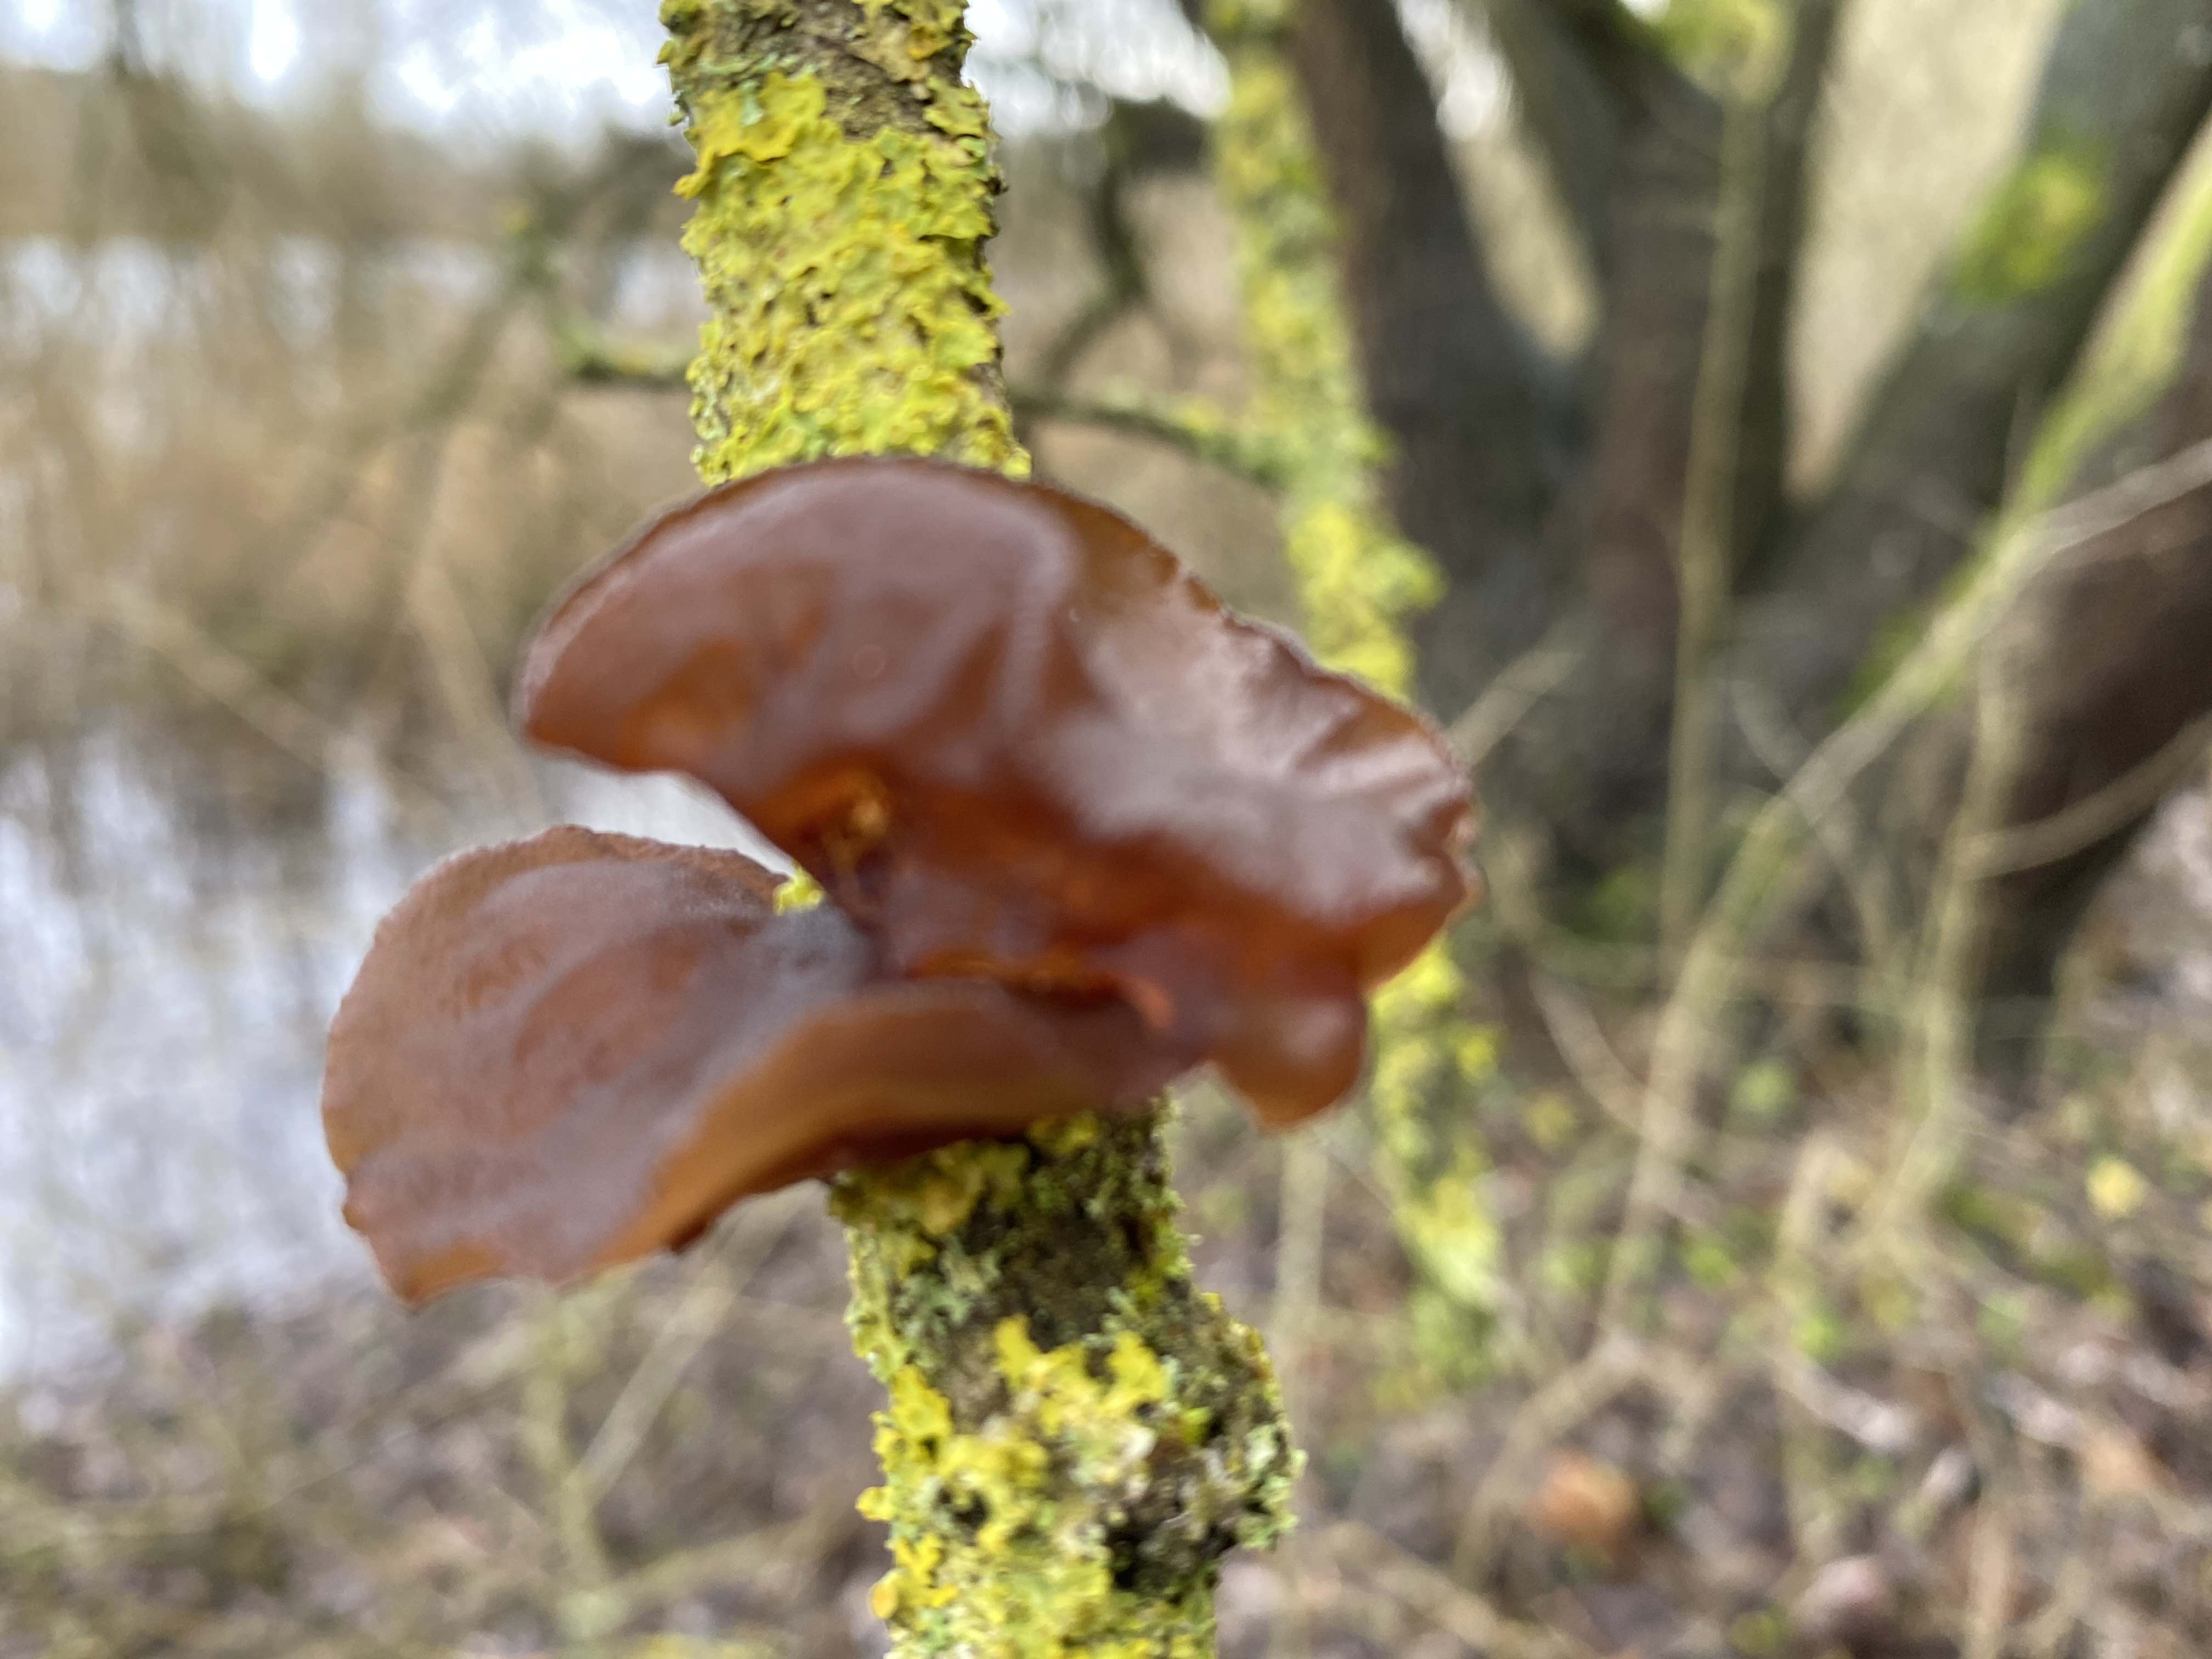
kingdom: Fungi
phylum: Basidiomycota
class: Agaricomycetes
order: Auriculariales
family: Auriculariaceae
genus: Exidia
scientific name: Exidia recisa
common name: pile-bævretop
